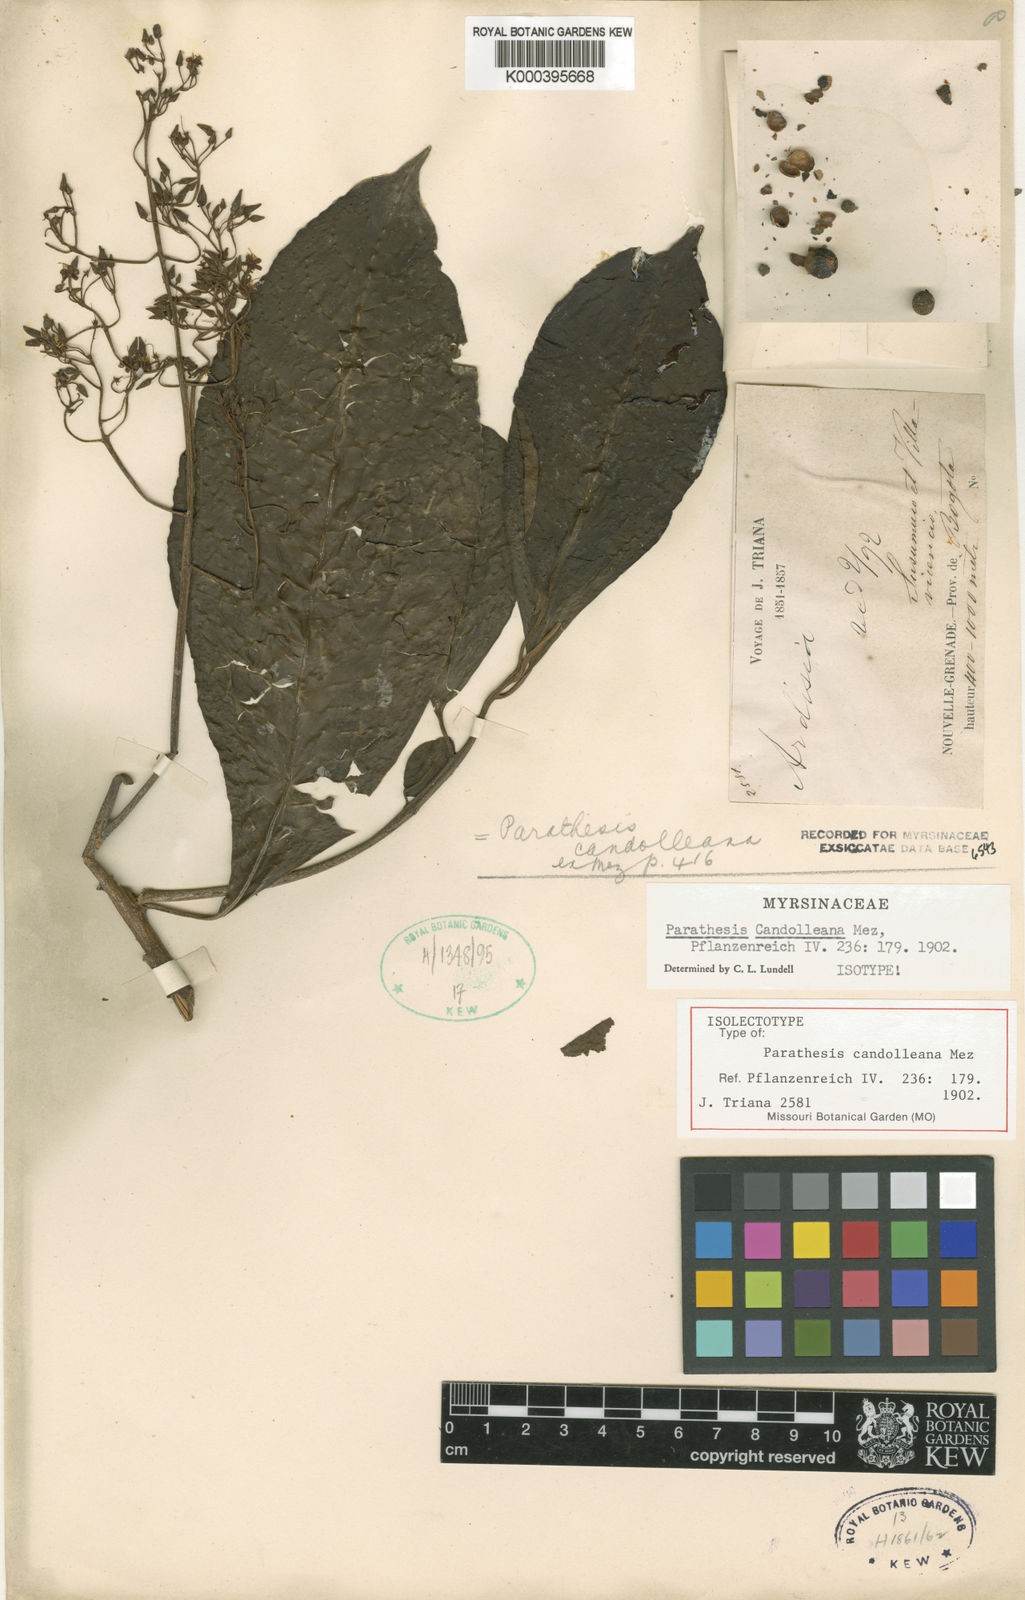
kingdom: Plantae
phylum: Tracheophyta
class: Magnoliopsida
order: Ericales
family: Primulaceae
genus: Parathesis
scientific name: Parathesis candolleana
